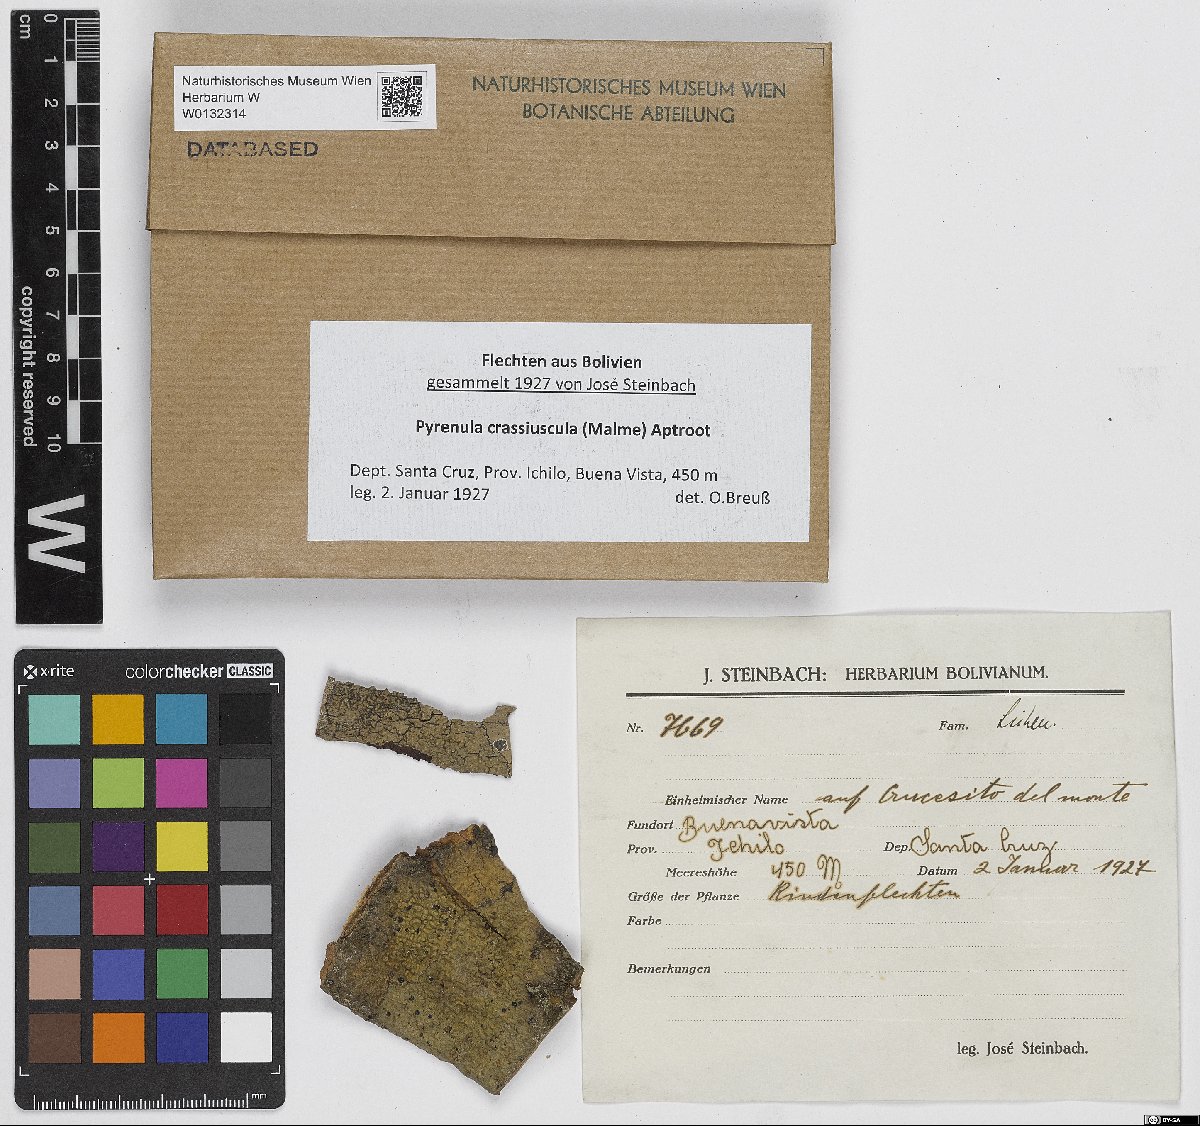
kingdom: Fungi
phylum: Ascomycota
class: Eurotiomycetes
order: Pyrenulales
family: Pyrenulaceae
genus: Pyrenula
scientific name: Pyrenula crassiuscula
